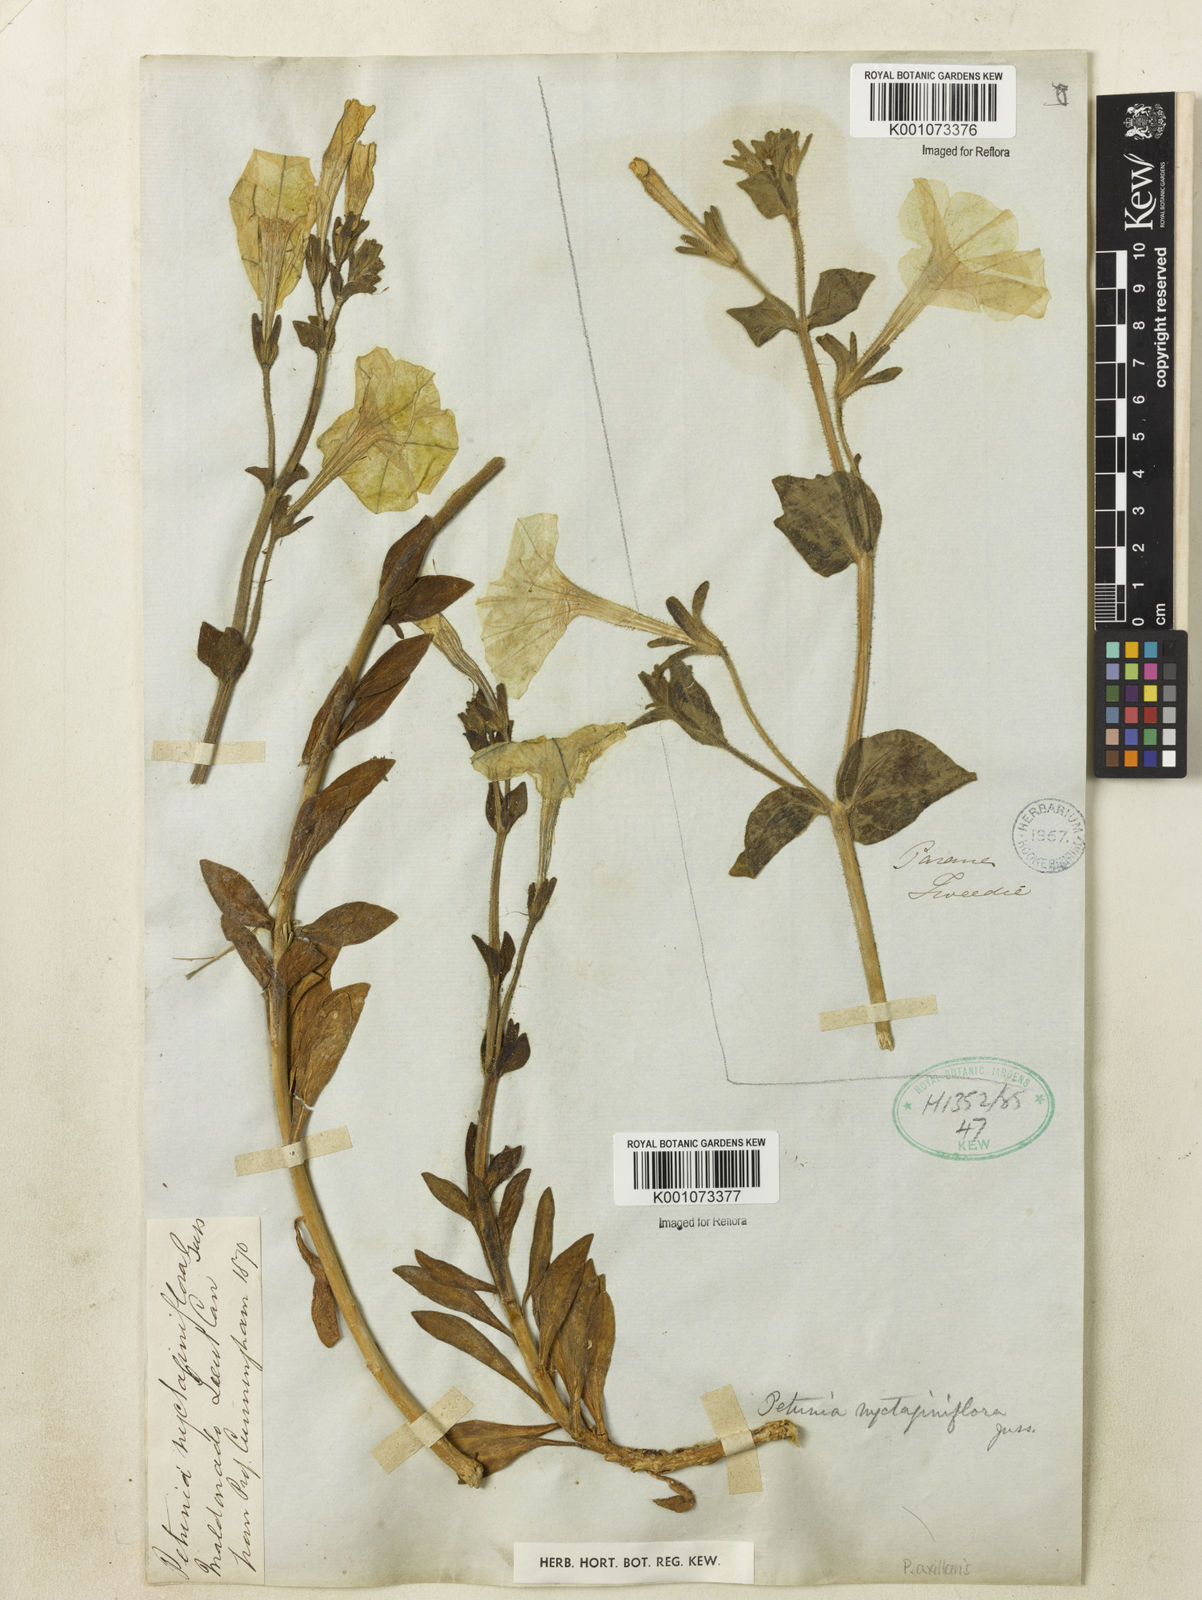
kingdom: Plantae
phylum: Tracheophyta
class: Magnoliopsida
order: Solanales
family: Solanaceae
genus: Petunia
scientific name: Petunia axillaris
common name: Large white petunia
